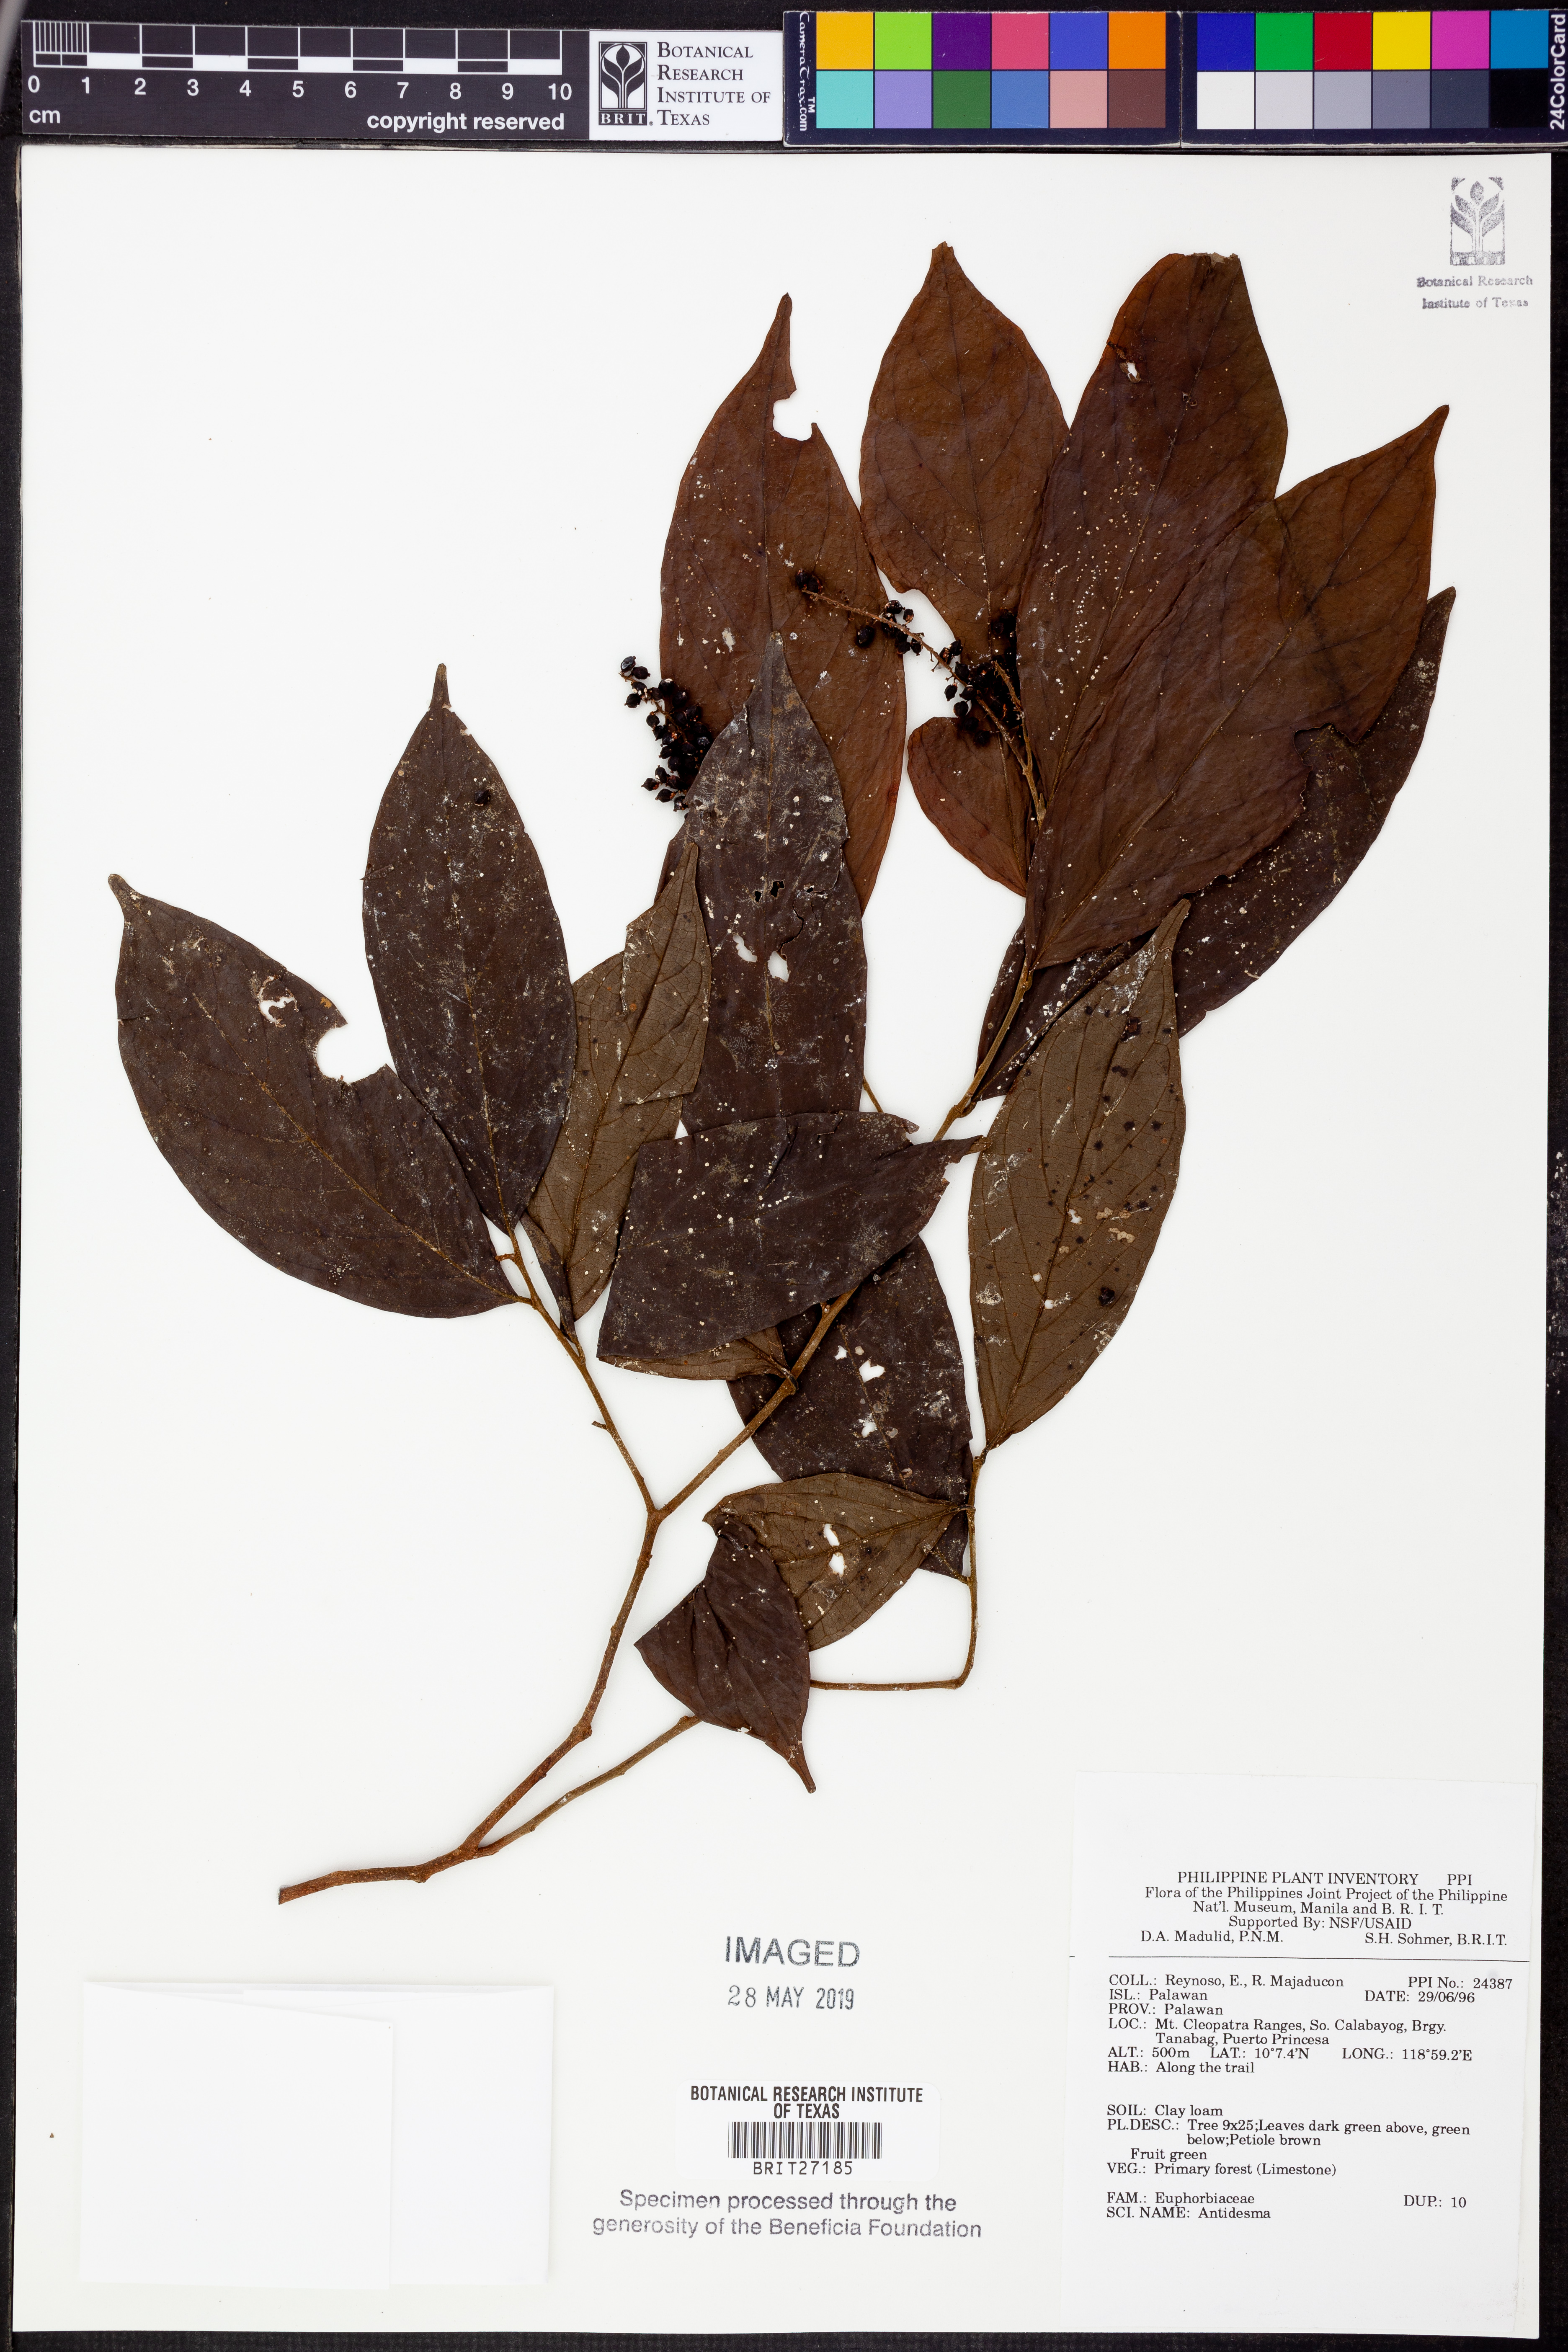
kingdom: Plantae
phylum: Tracheophyta
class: Magnoliopsida
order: Malpighiales
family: Phyllanthaceae
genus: Antidesma
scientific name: Antidesma
